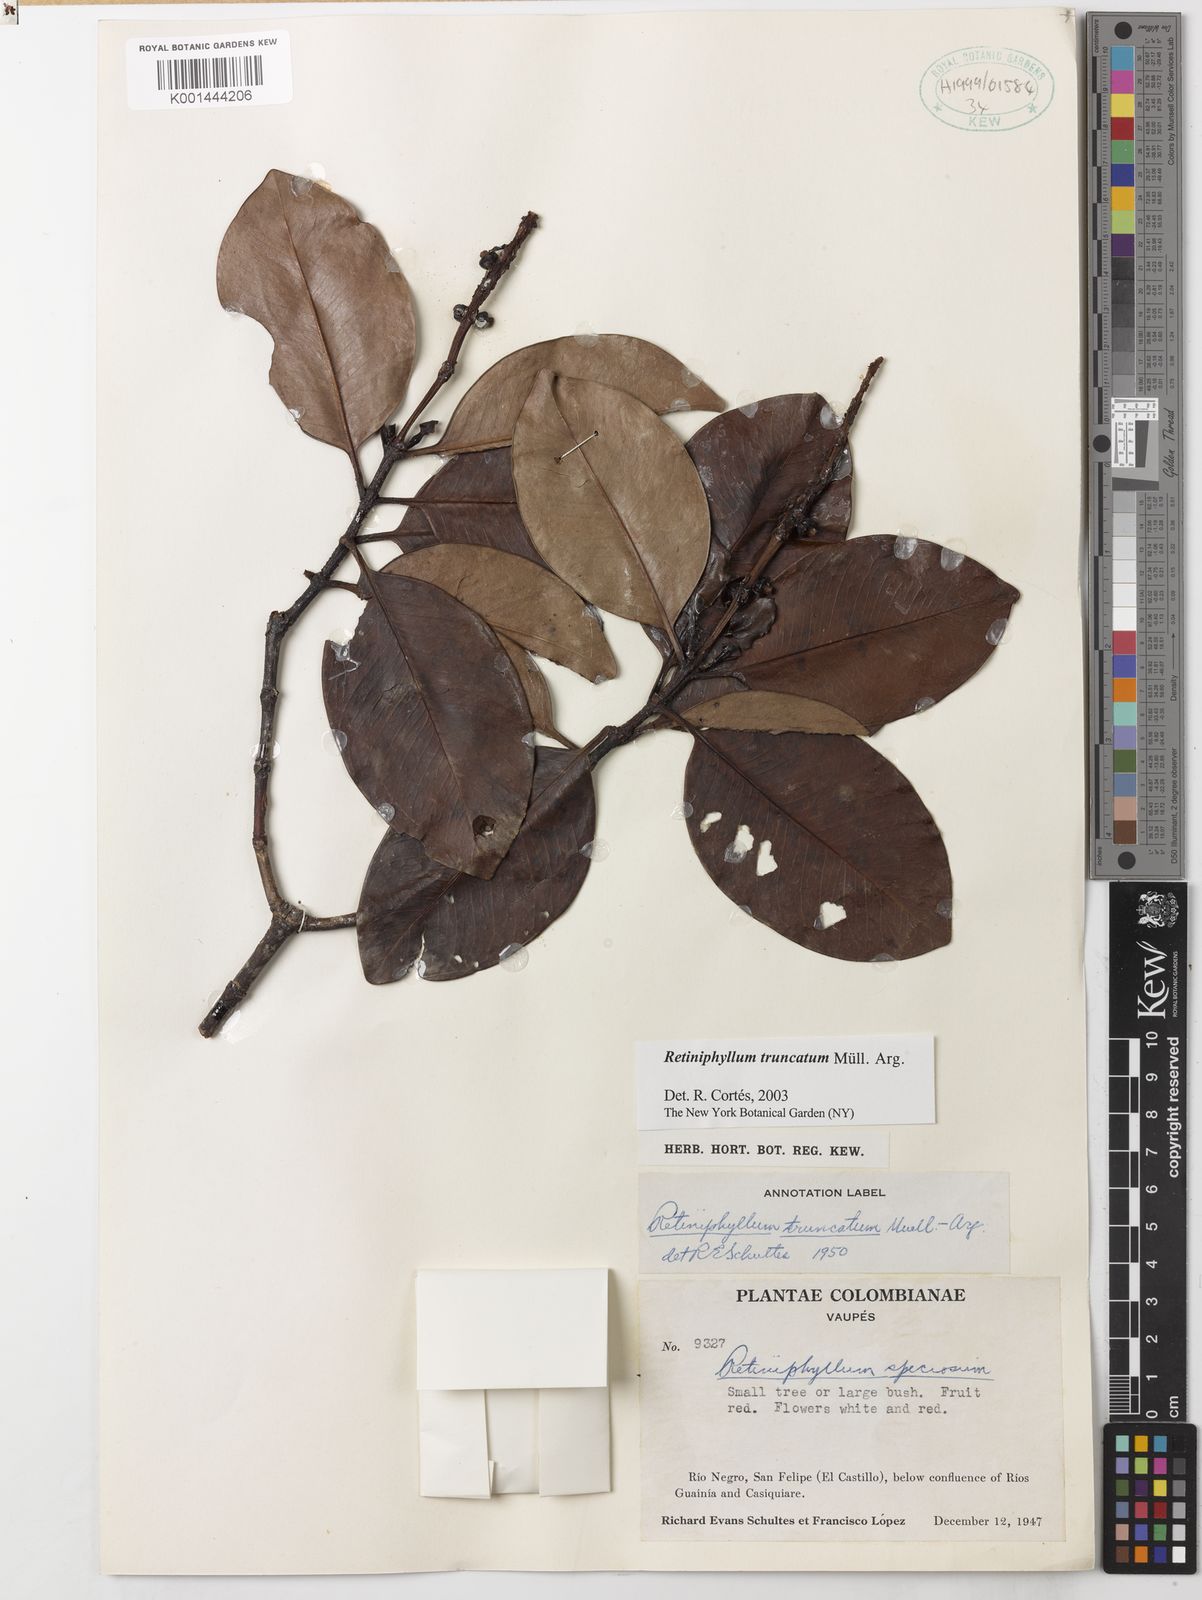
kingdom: Plantae
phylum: Tracheophyta
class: Magnoliopsida
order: Gentianales
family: Rubiaceae
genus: Retiniphyllum
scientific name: Retiniphyllum
